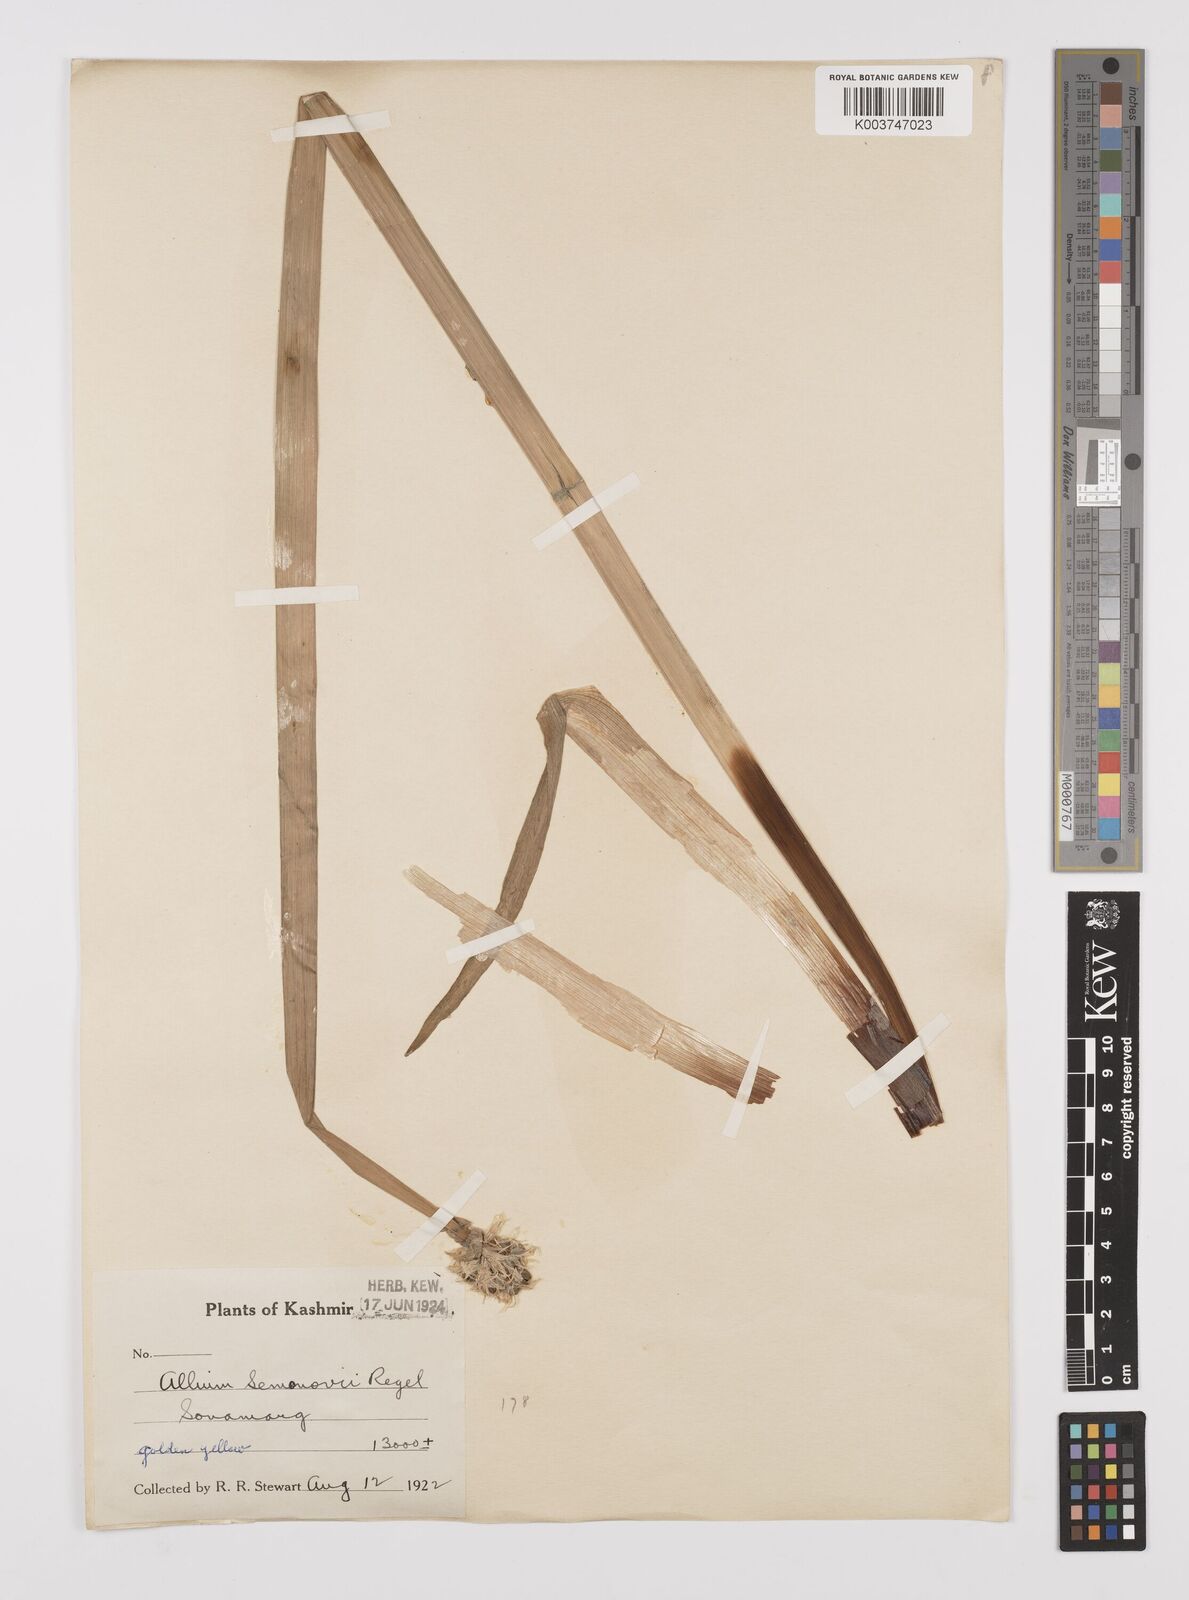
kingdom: Plantae
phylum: Tracheophyta
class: Liliopsida
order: Asparagales
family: Amaryllidaceae
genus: Allium
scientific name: Allium semenovii
